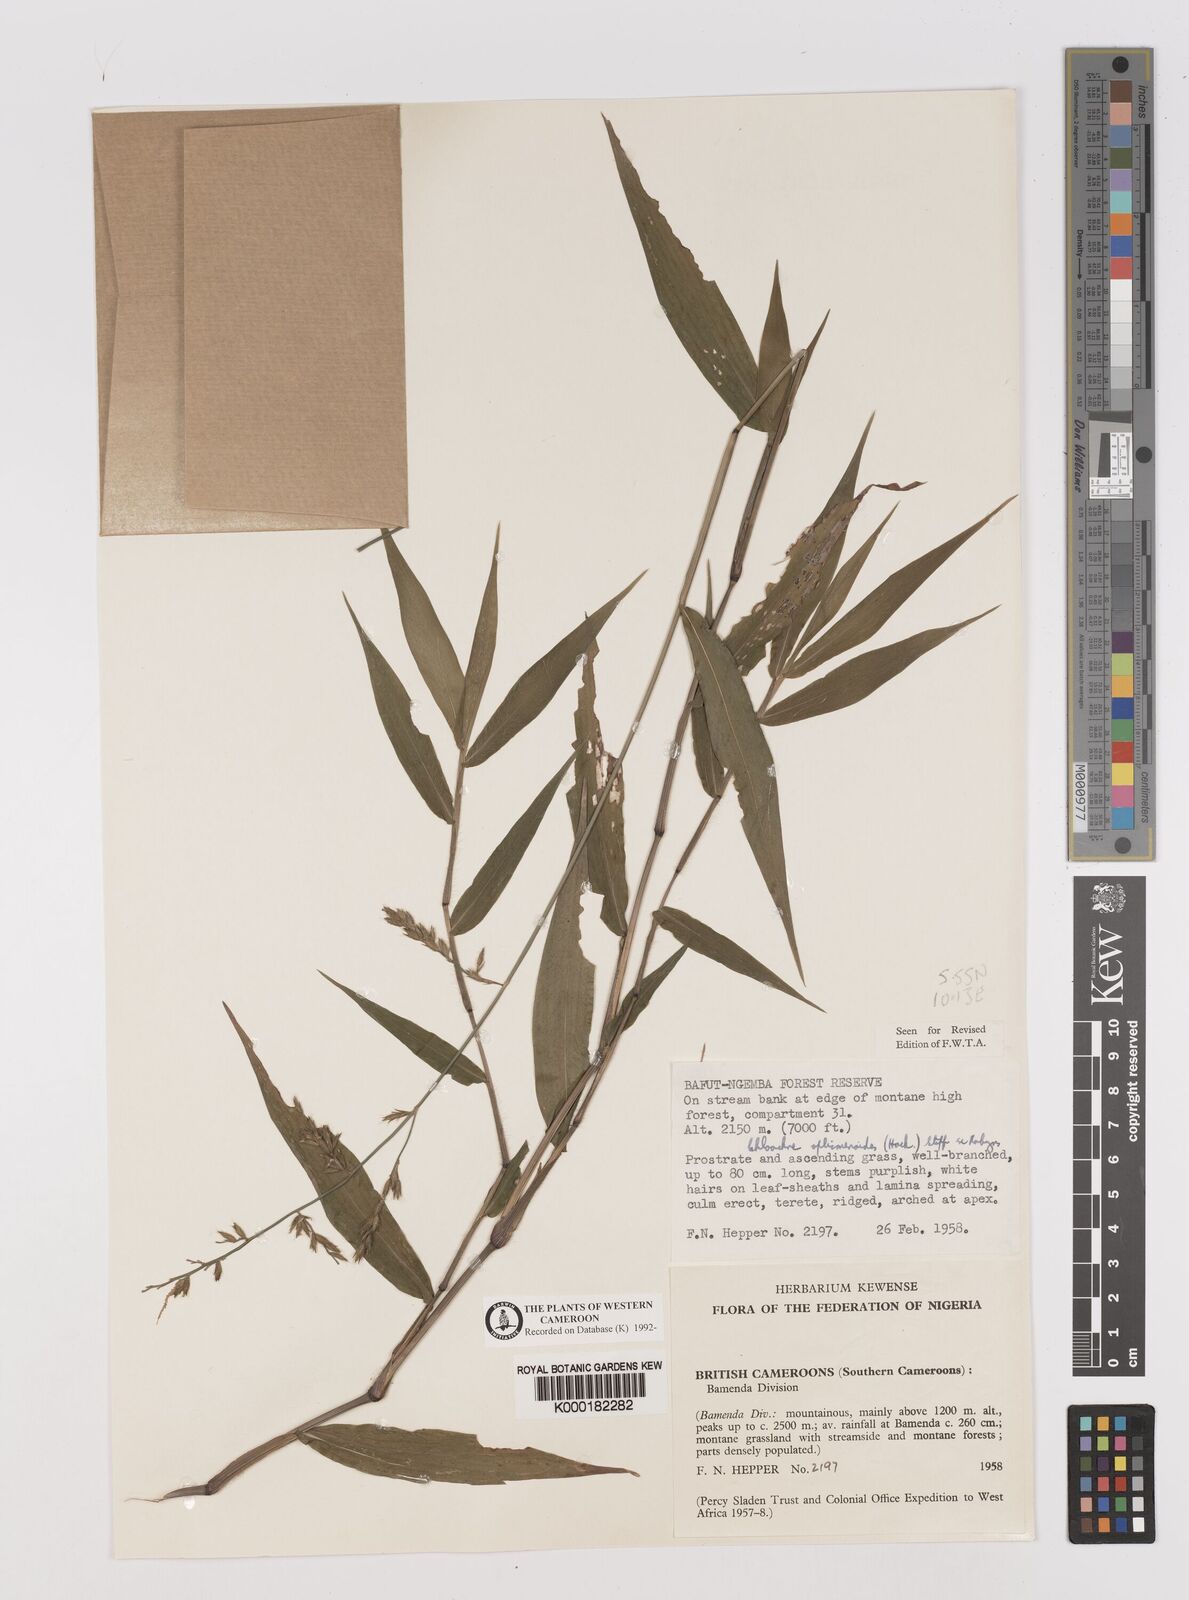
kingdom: Plantae
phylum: Tracheophyta
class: Liliopsida
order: Poales
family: Poaceae
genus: Poecilostachys
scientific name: Poecilostachys oplismenoides
